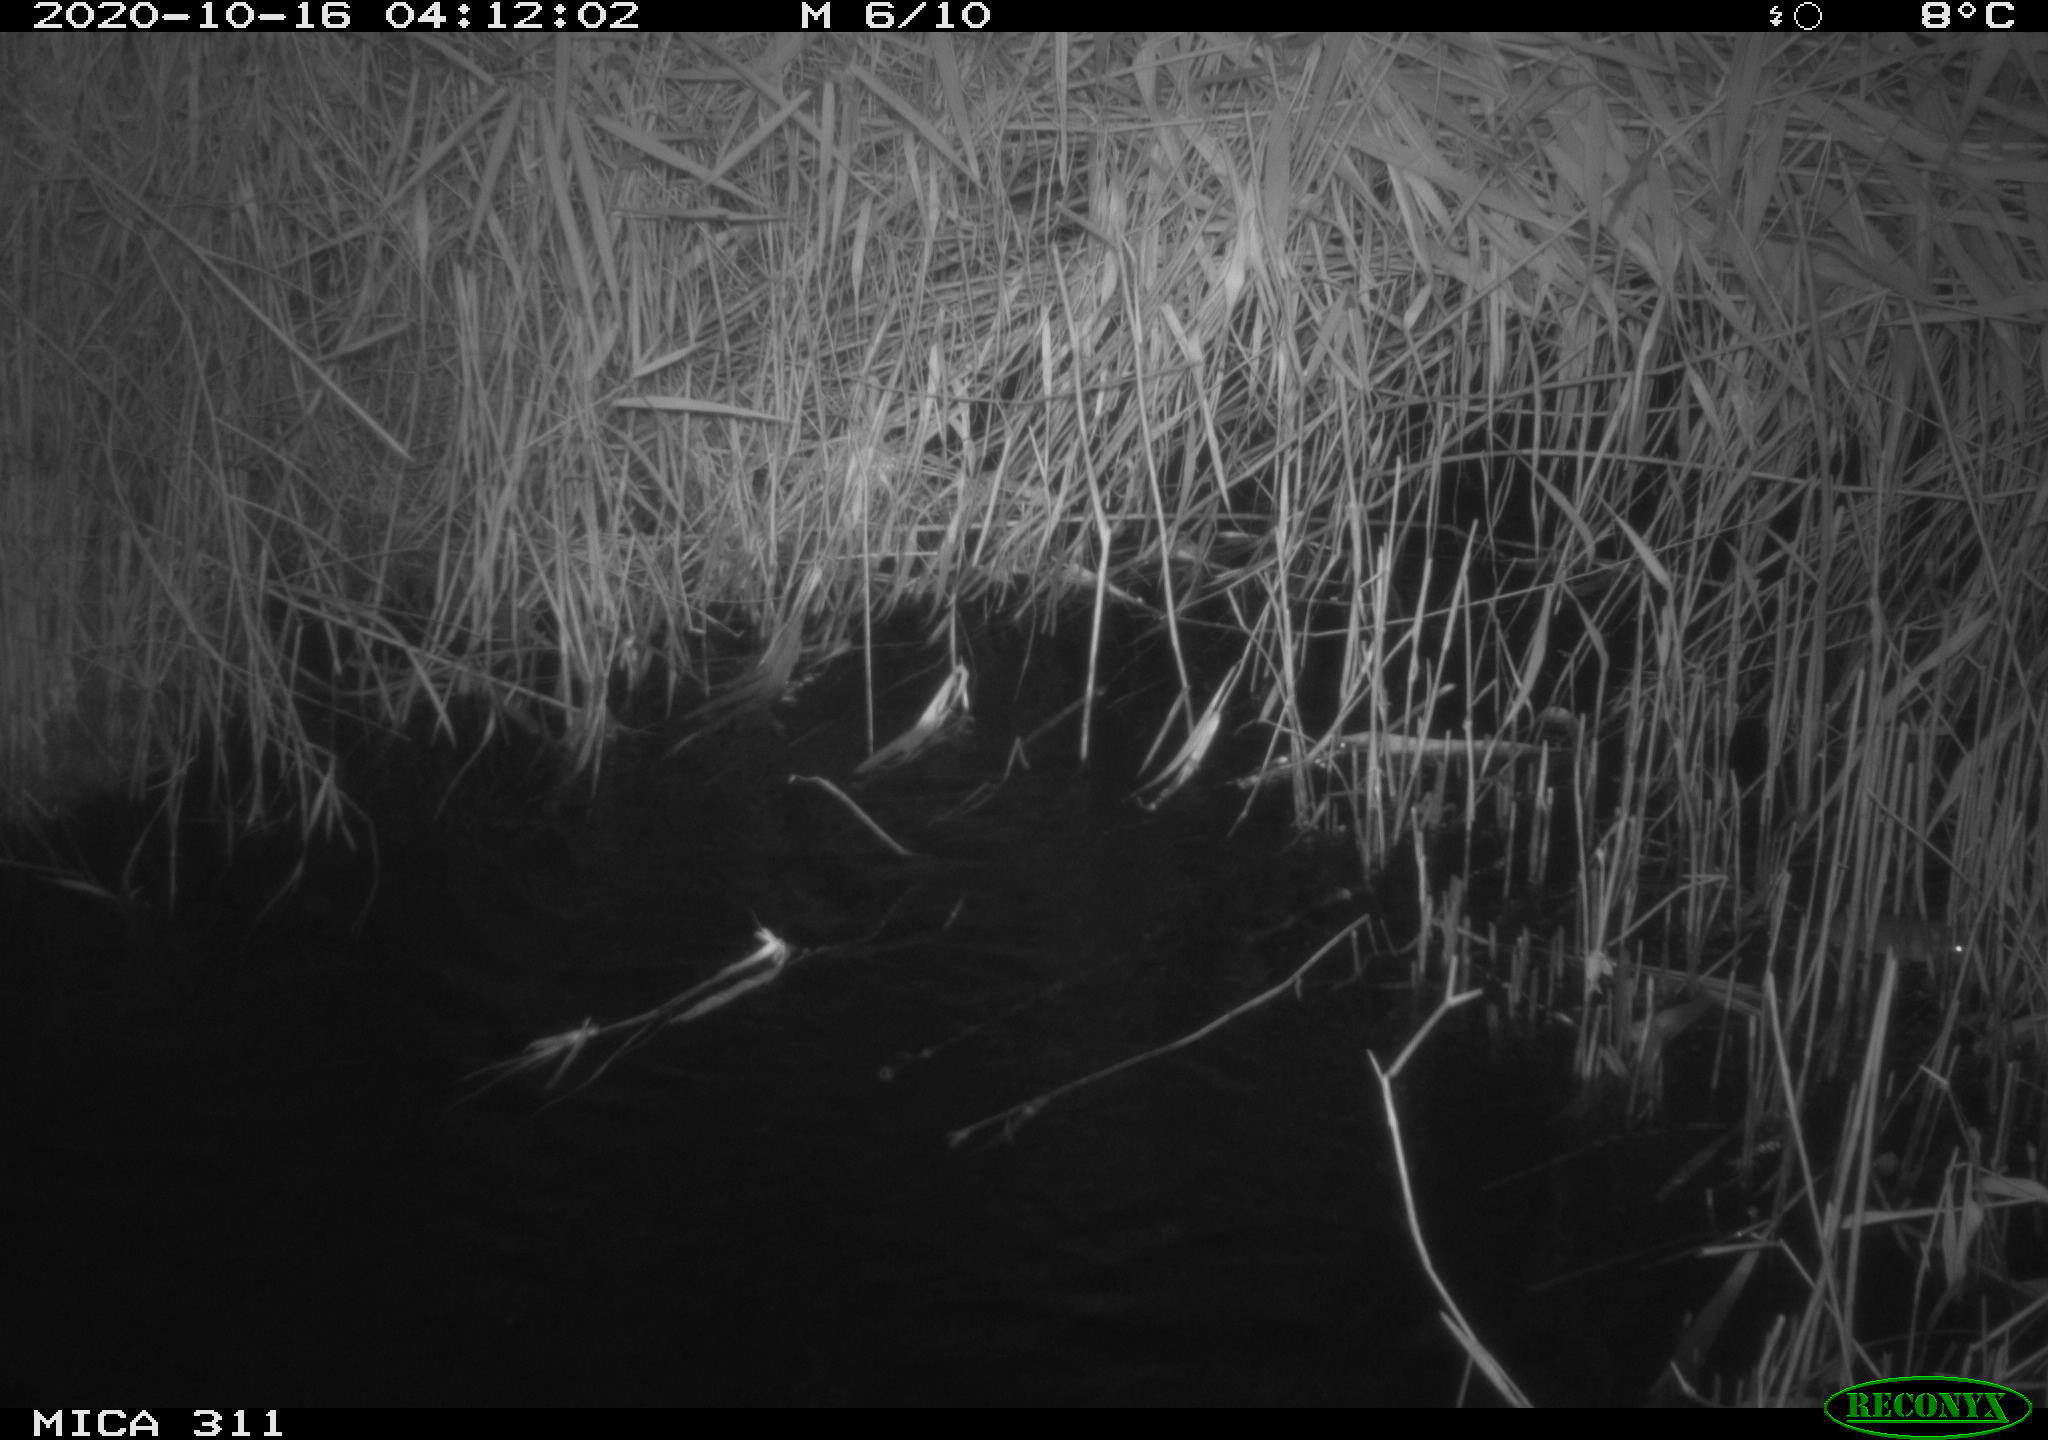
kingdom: Animalia
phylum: Chordata
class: Mammalia
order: Rodentia
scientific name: Rodentia
